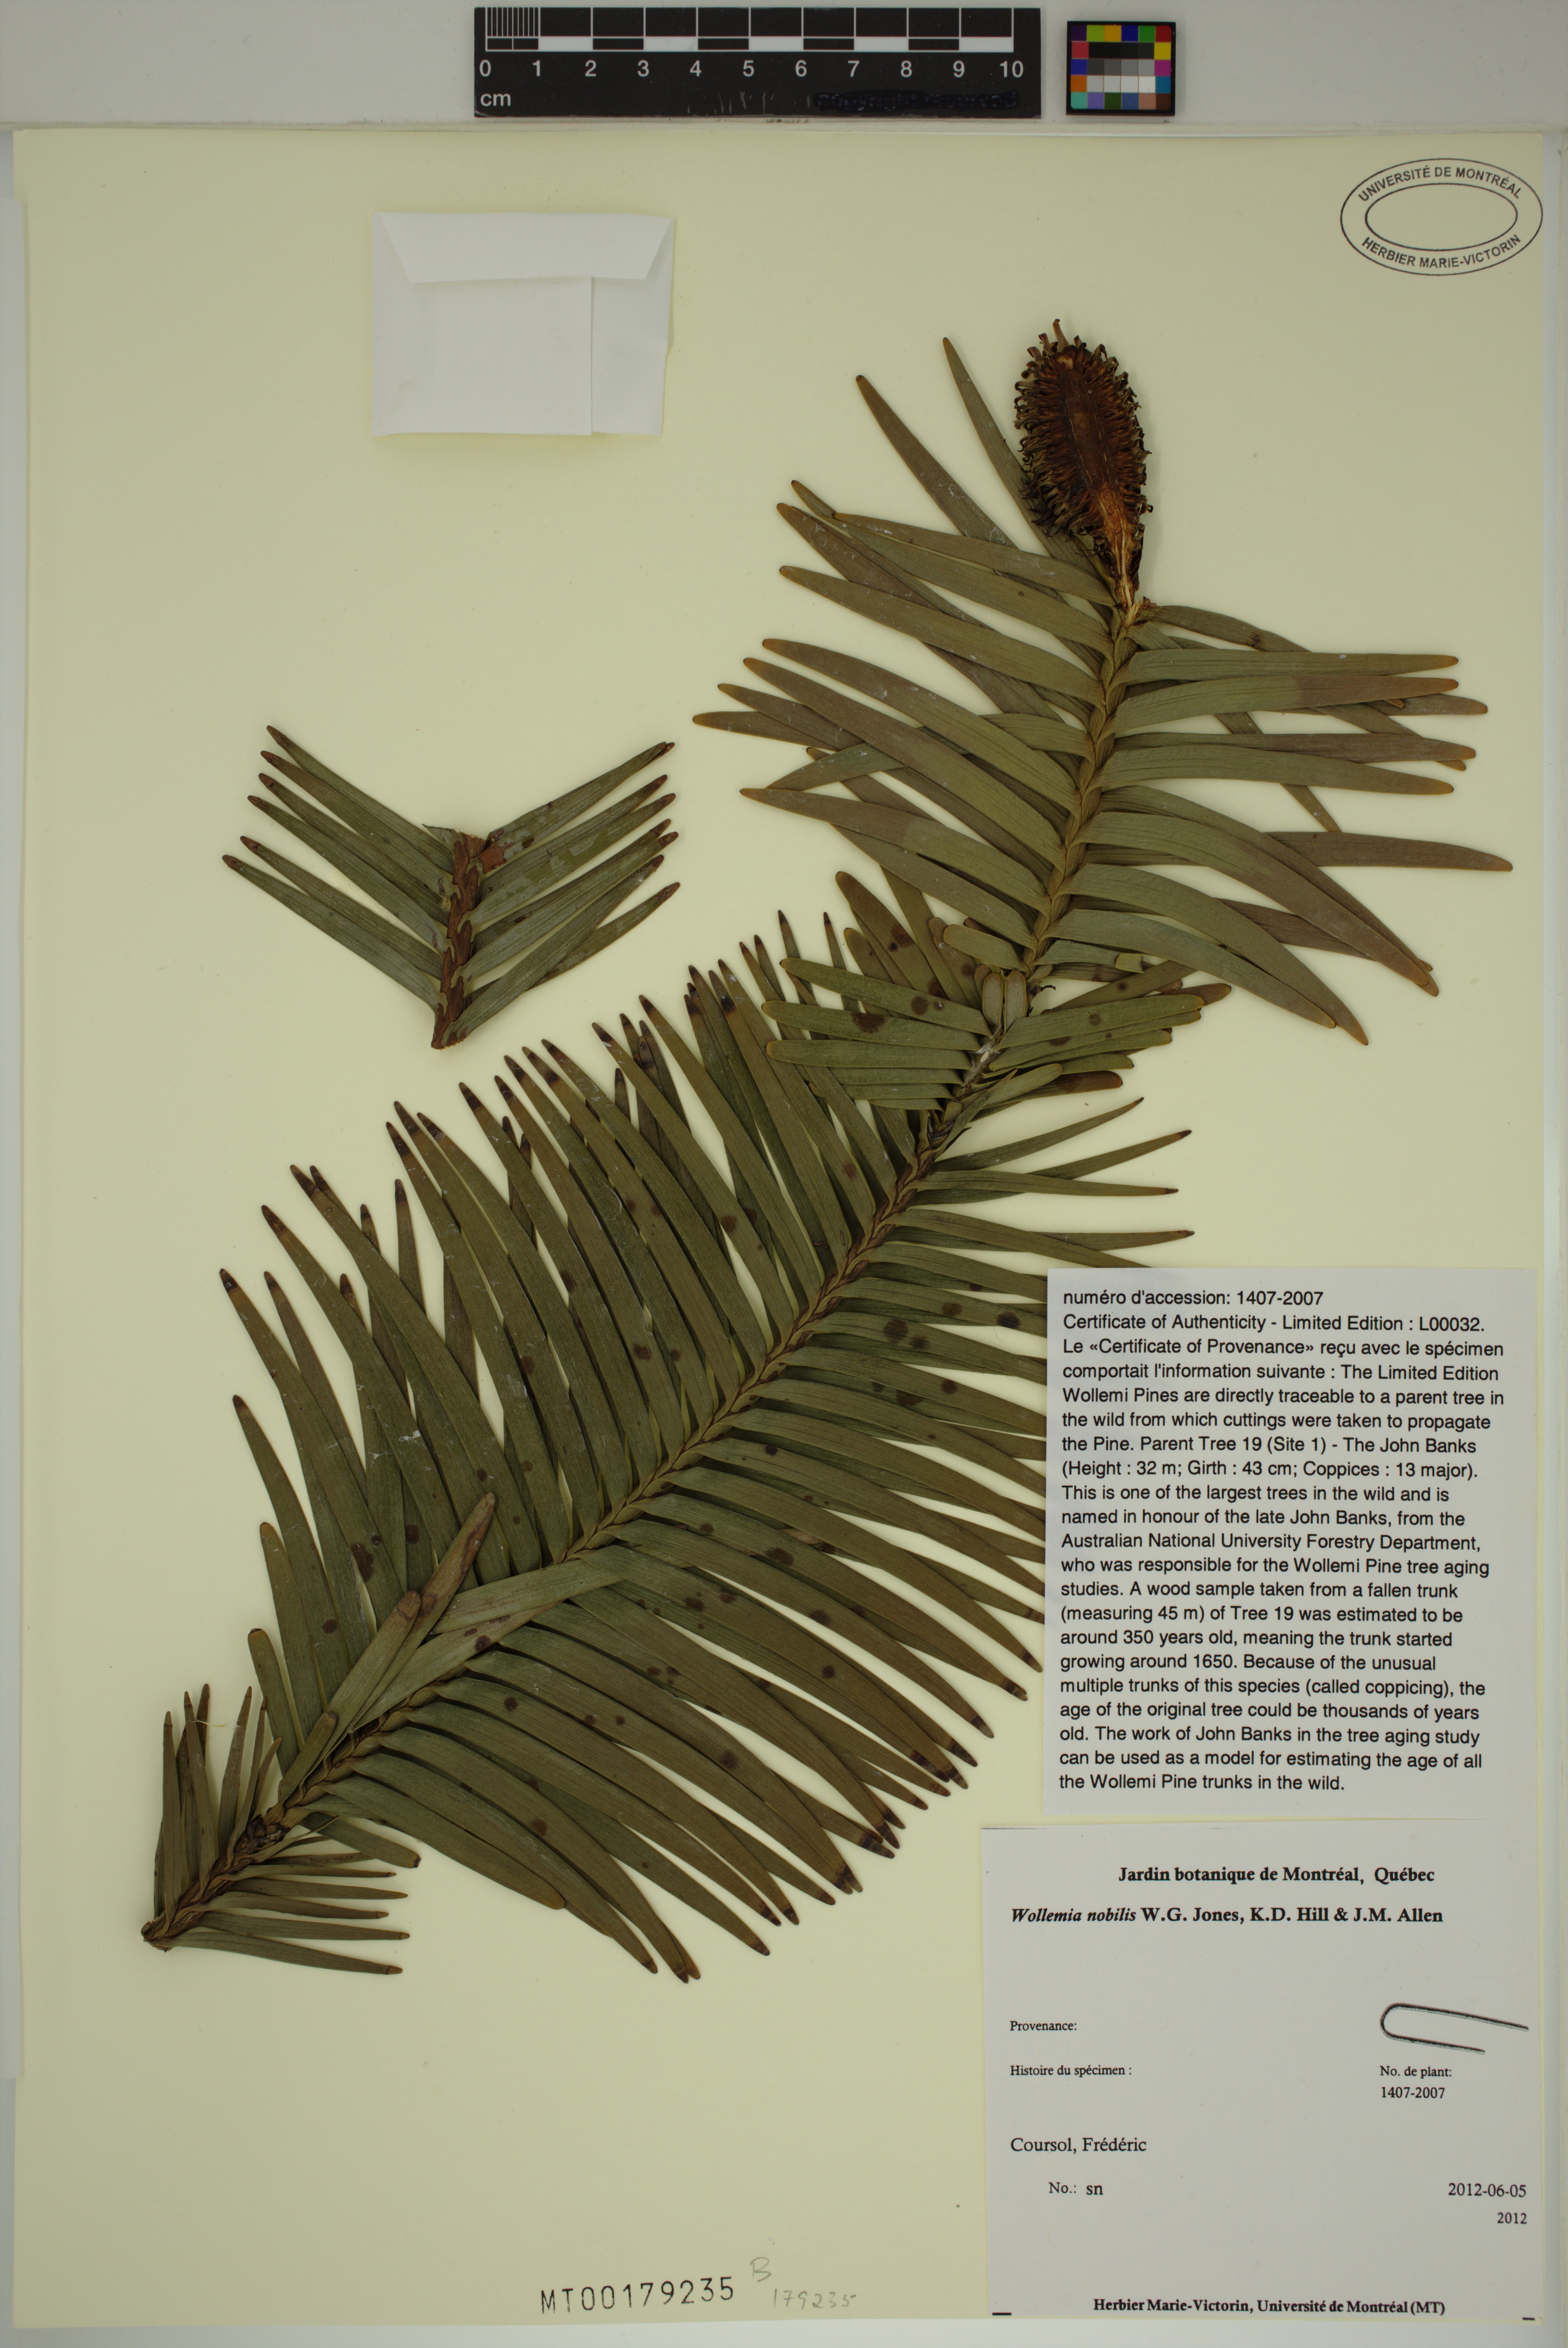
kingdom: Plantae
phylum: Tracheophyta
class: Pinopsida
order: Pinales
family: Araucariaceae
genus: Wollemia
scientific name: Wollemia nobilis
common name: Wollemi pine
